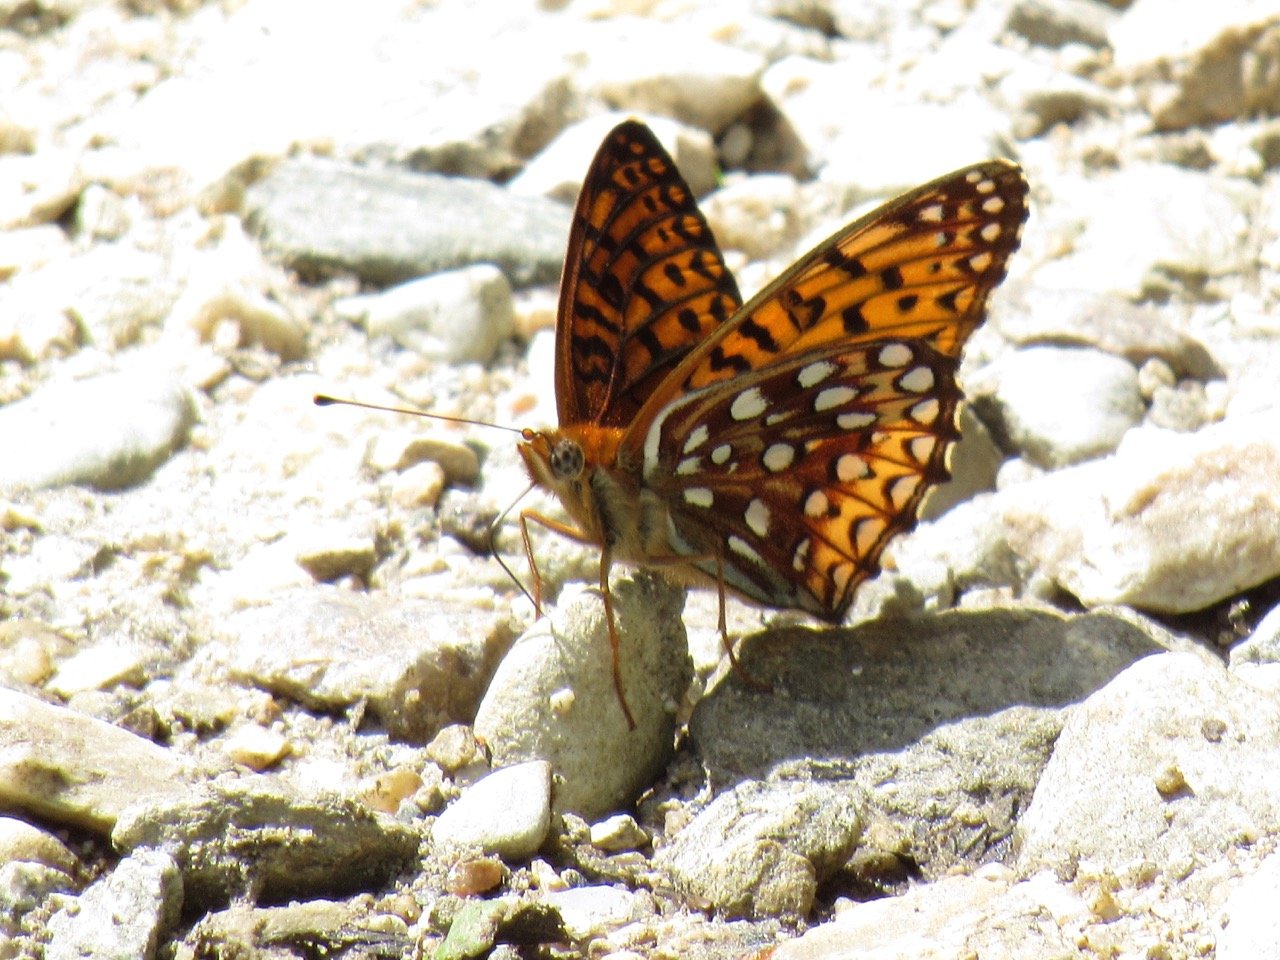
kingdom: Animalia
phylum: Arthropoda
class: Insecta
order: Lepidoptera
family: Nymphalidae
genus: Speyeria
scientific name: Speyeria atlantis
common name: Atlantis Fritillary
